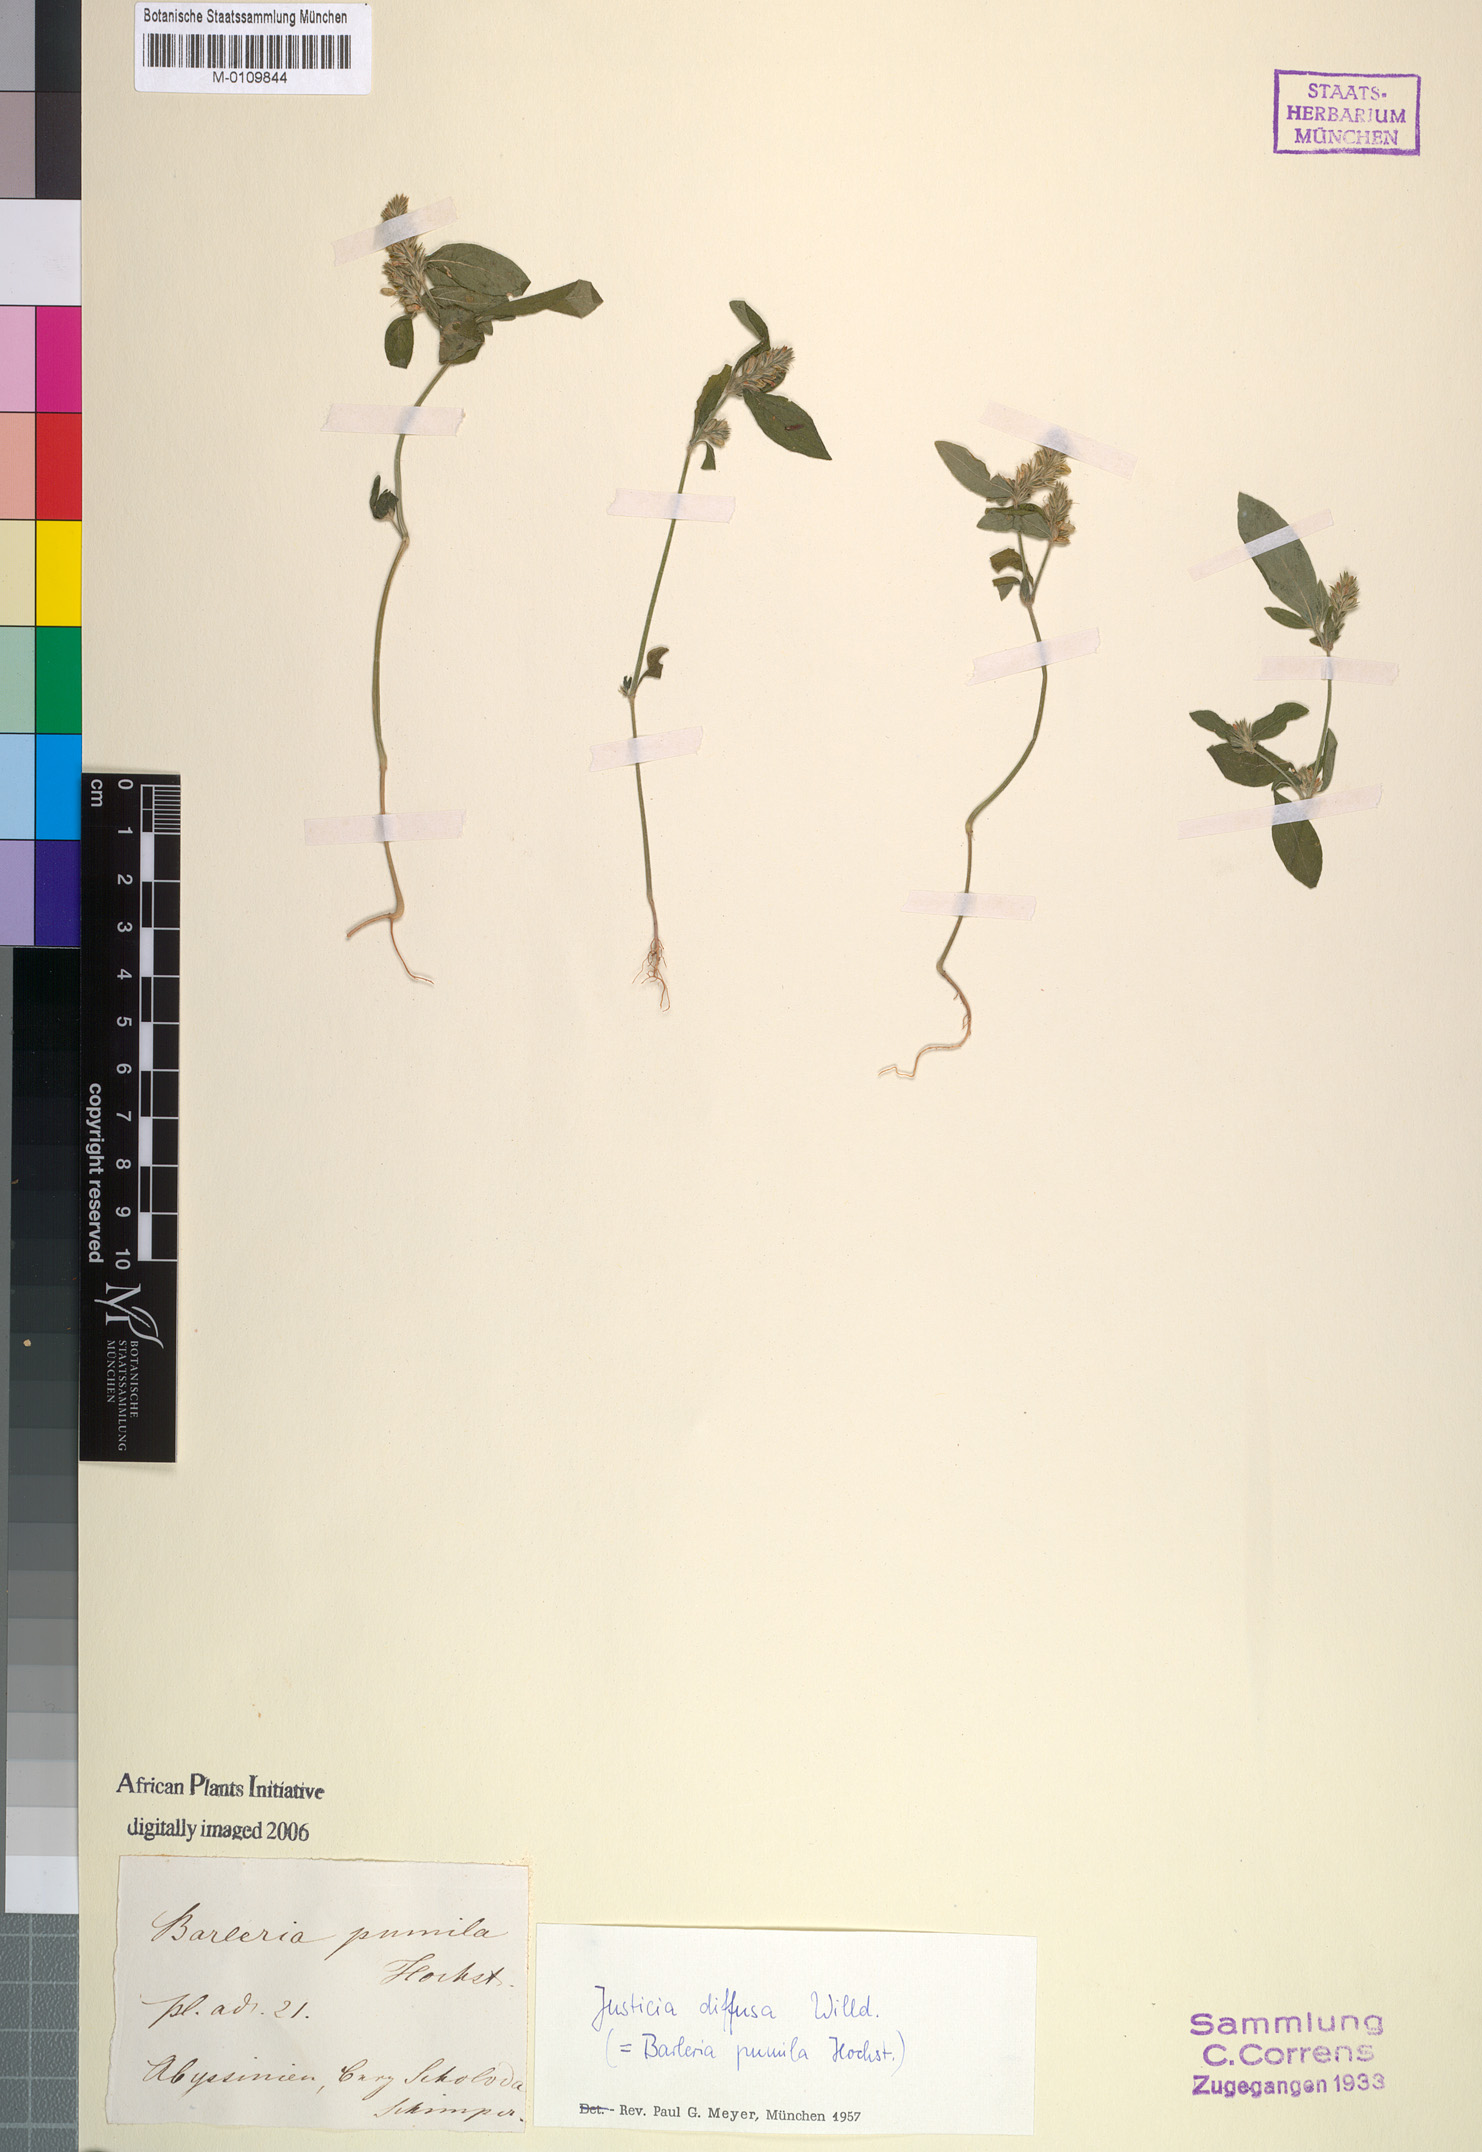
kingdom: Plantae
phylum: Tracheophyta
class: Magnoliopsida
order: Lamiales
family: Acanthaceae
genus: Rostellularia
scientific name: Rostellularia diffusa
